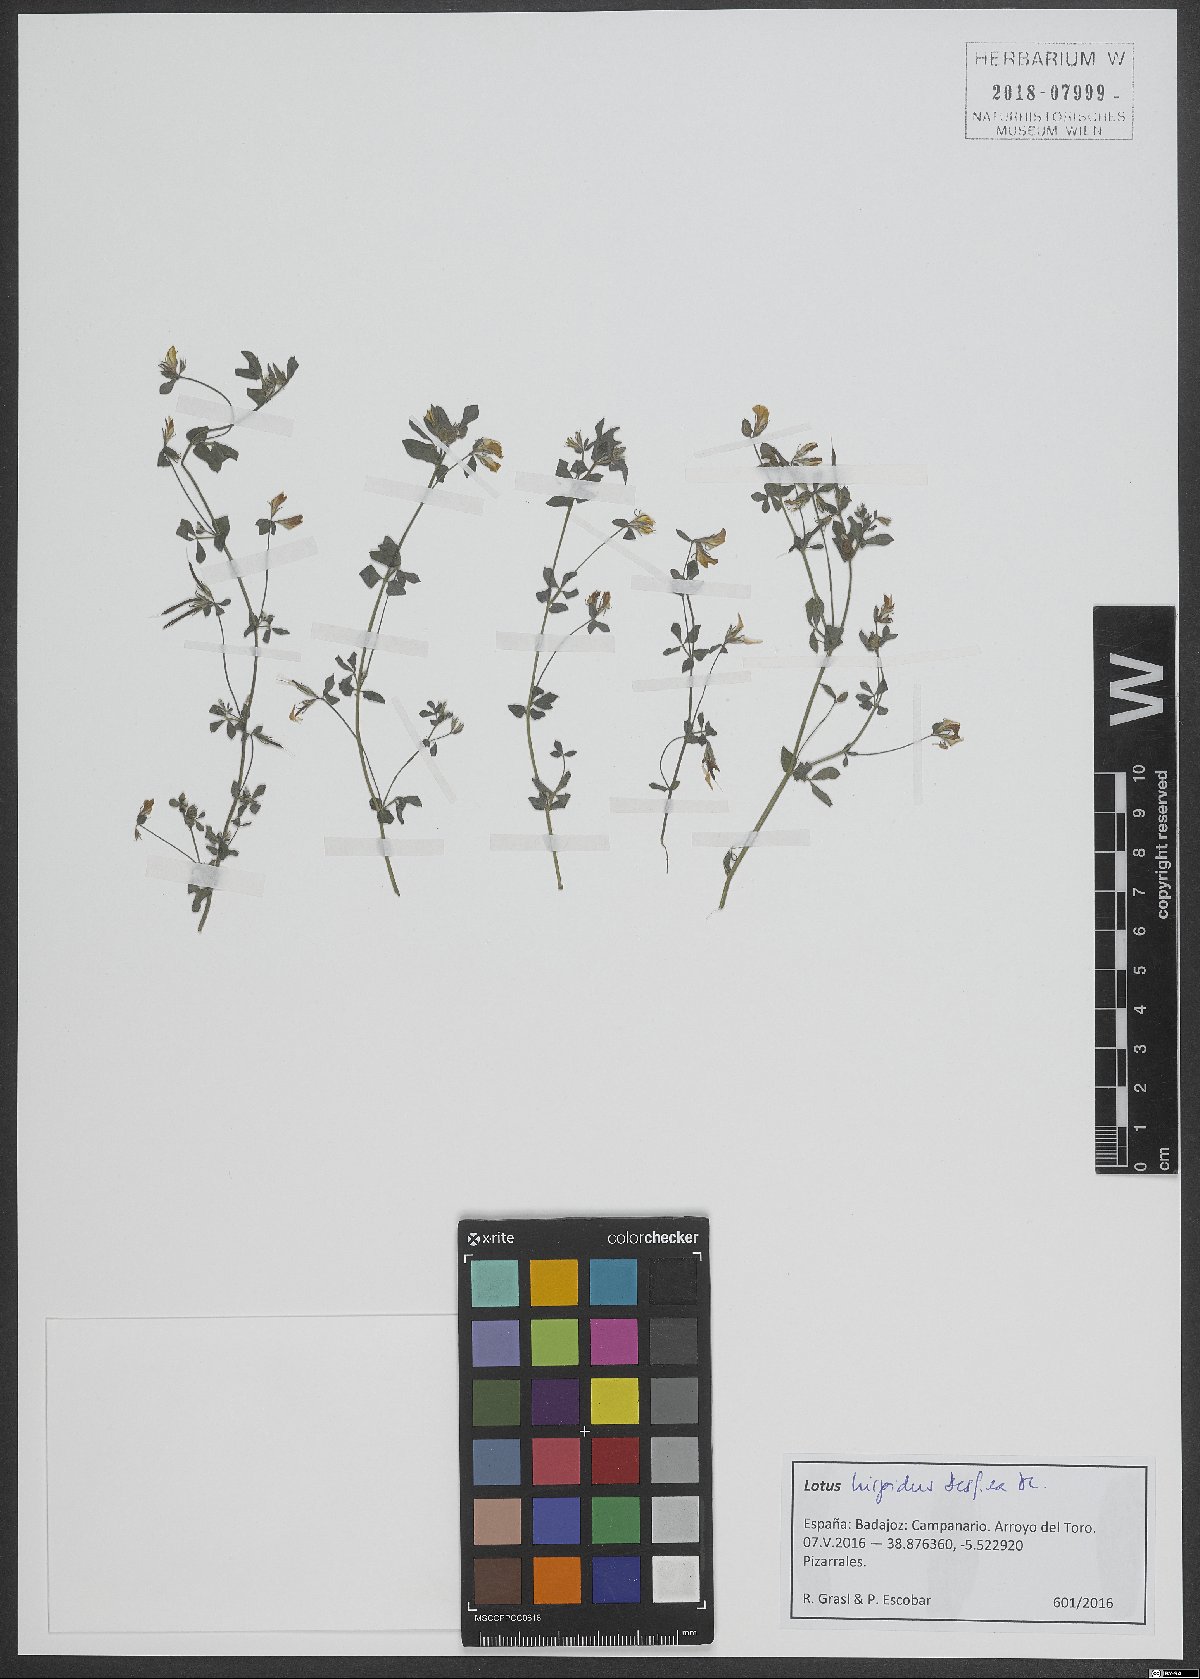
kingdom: Plantae
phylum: Tracheophyta
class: Magnoliopsida
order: Fabales
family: Fabaceae
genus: Lotus
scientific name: Lotus parviflorus
